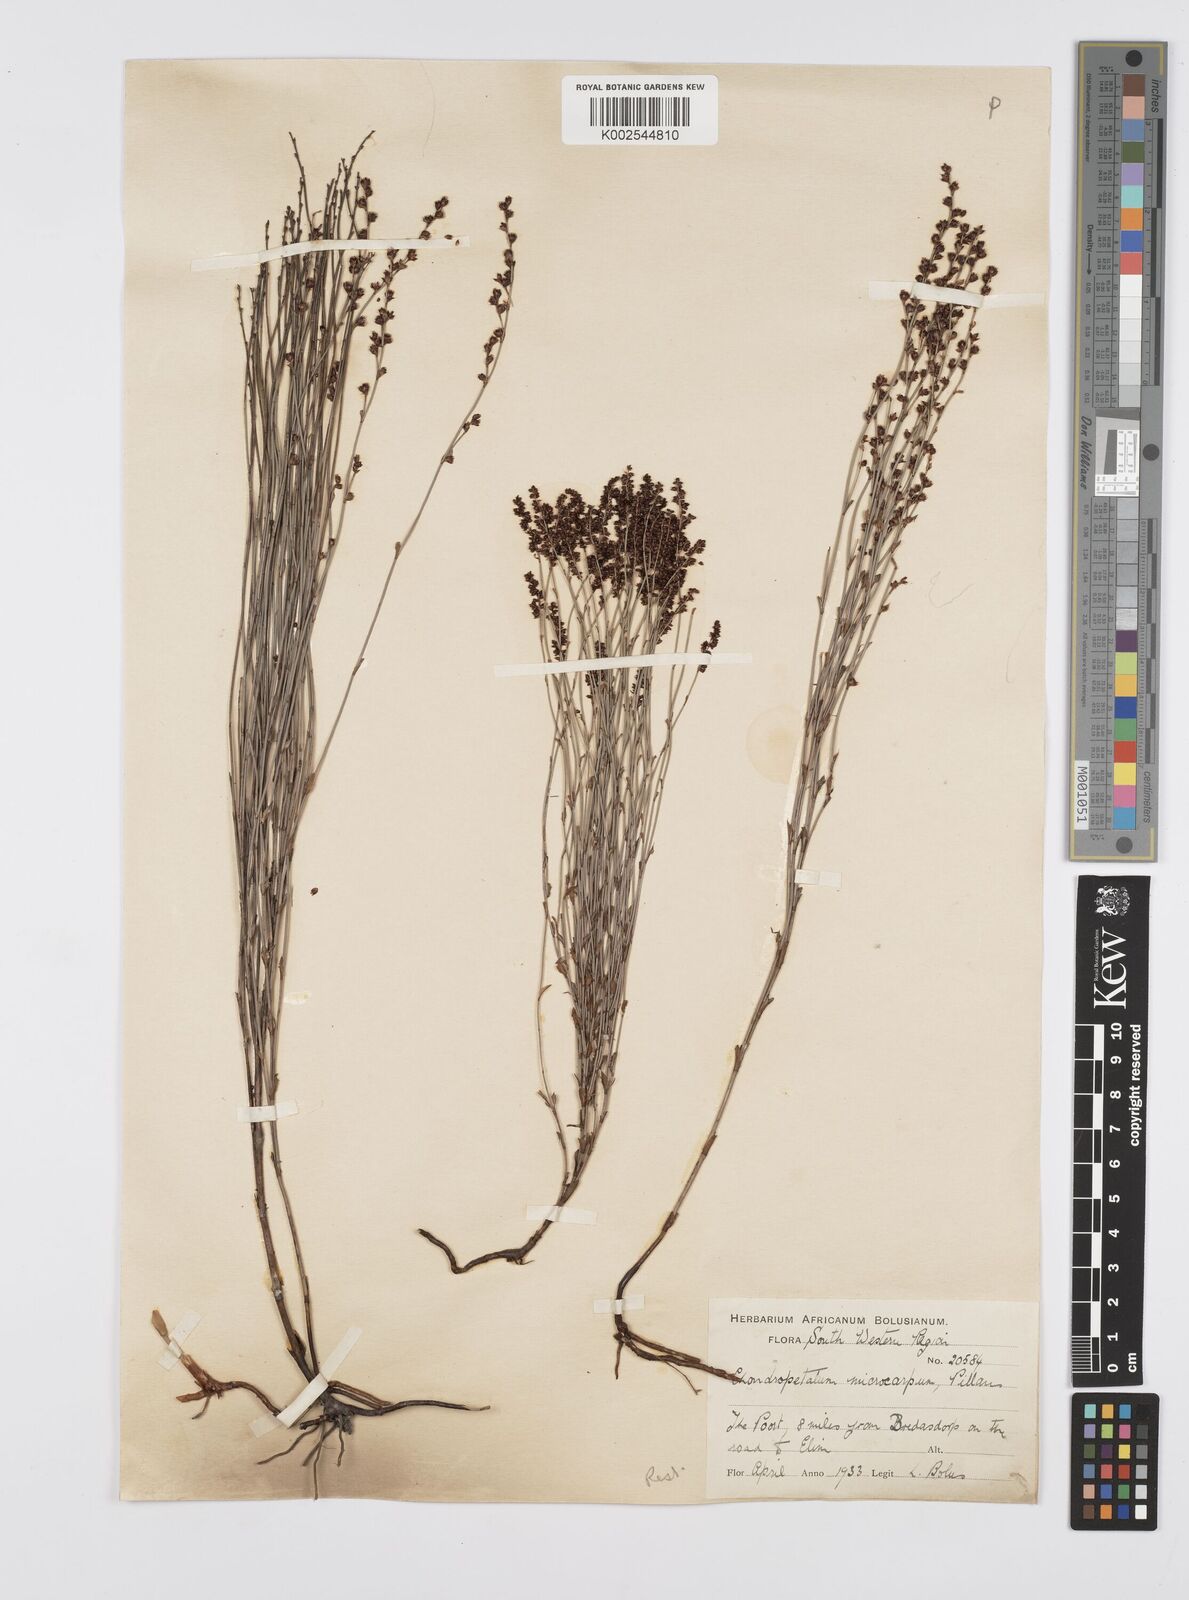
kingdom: Plantae
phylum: Tracheophyta
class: Liliopsida
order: Poales
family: Restionaceae
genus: Elegia
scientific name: Elegia microcarpa
